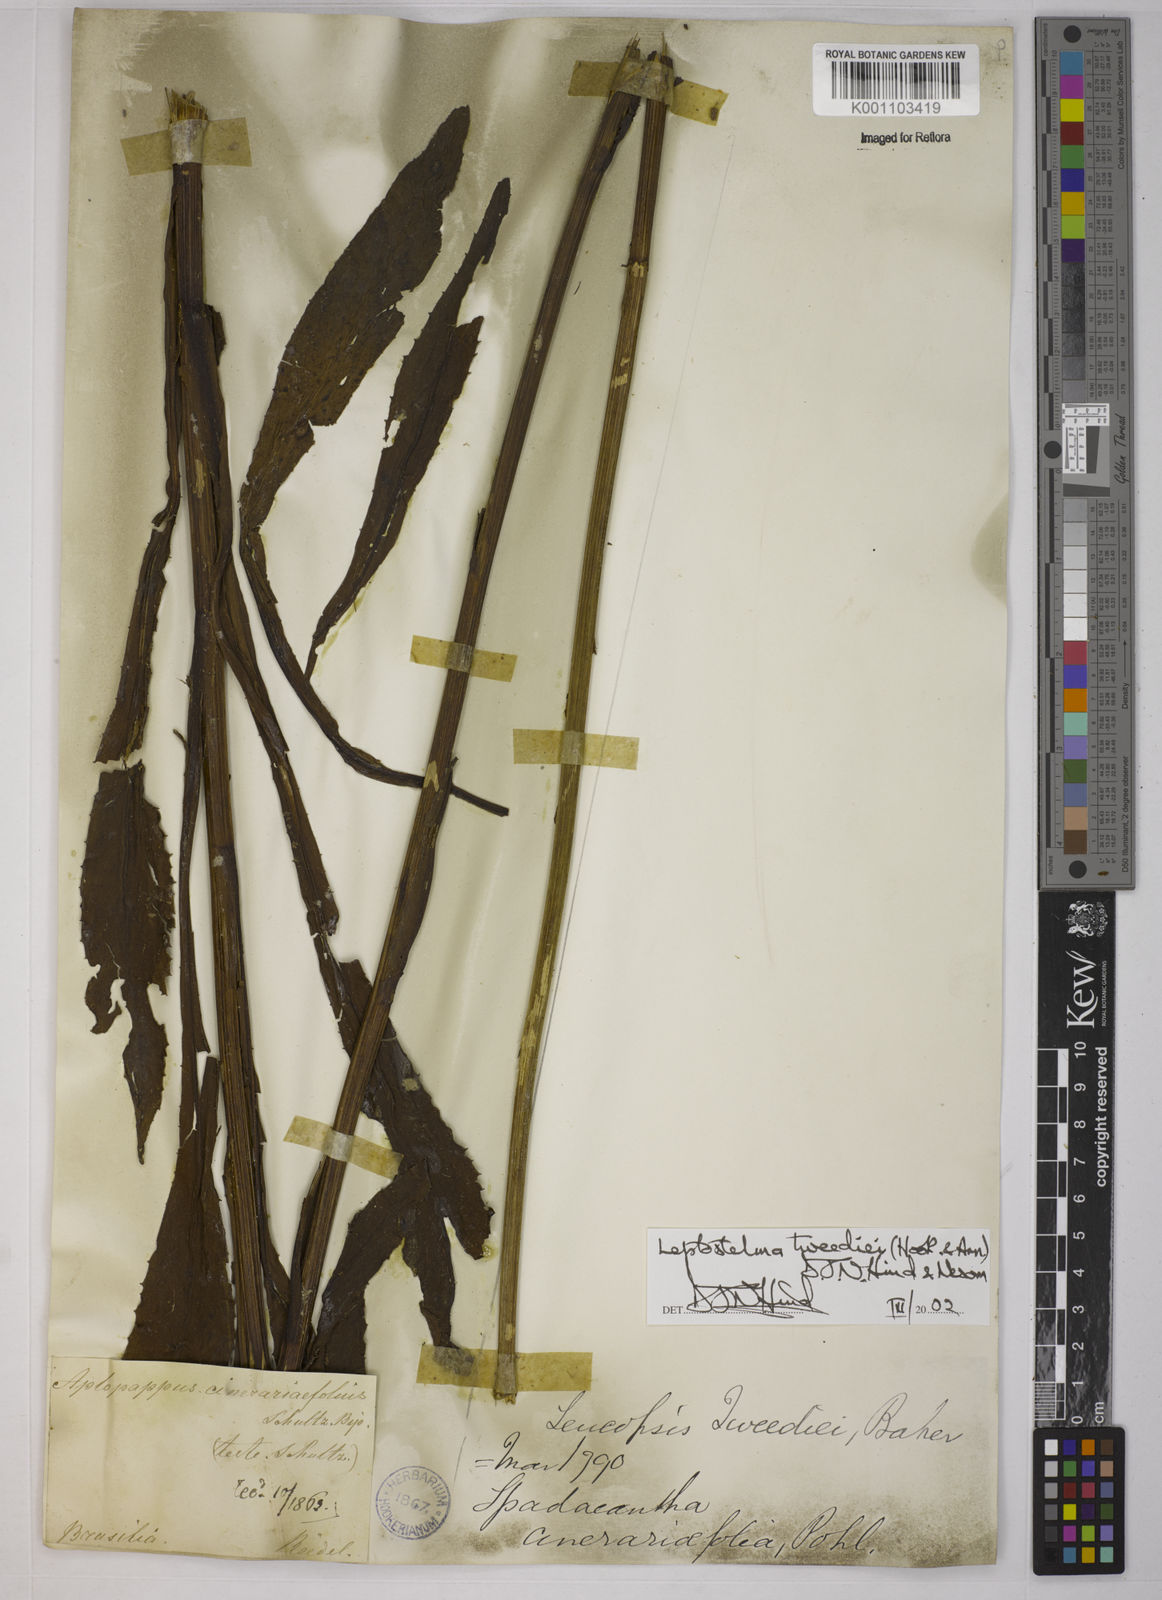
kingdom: Plantae
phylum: Tracheophyta
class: Magnoliopsida
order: Asterales
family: Asteraceae
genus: Leptostelma
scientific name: Leptostelma tweediei
